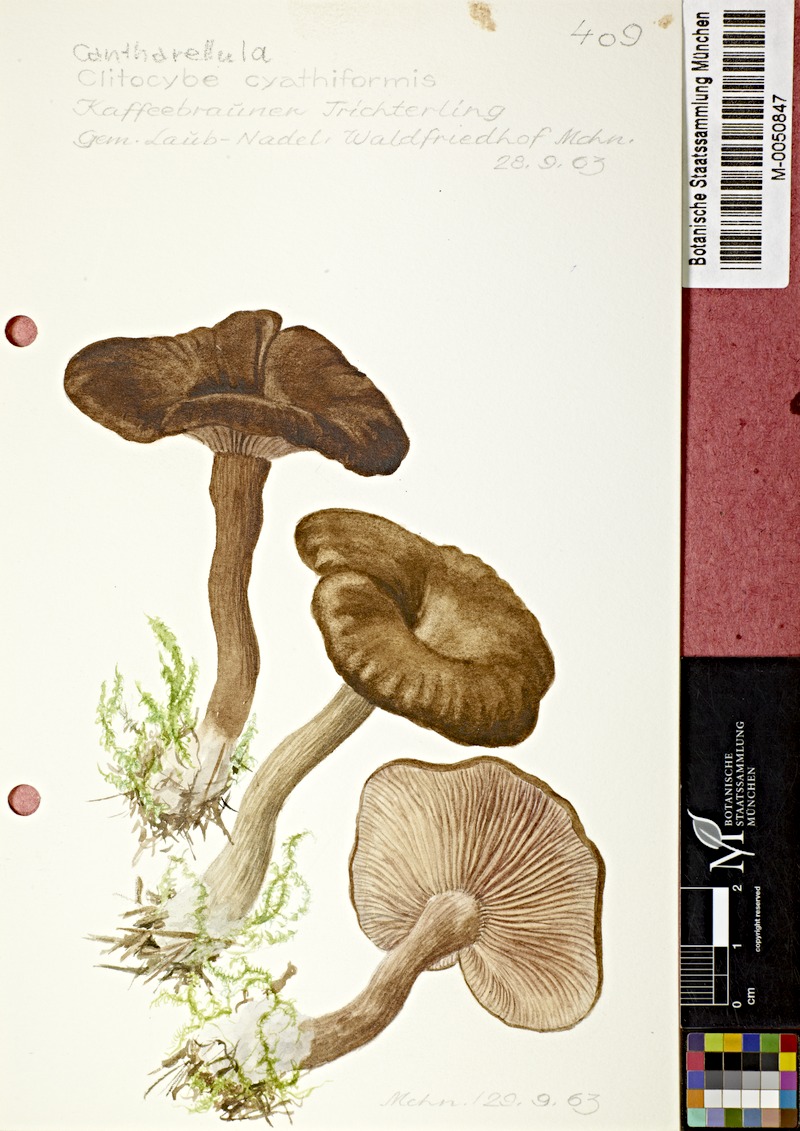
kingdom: Fungi
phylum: Basidiomycota
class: Agaricomycetes
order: Agaricales
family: Pseudoclitocybaceae
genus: Pseudoclitocybe
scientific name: Pseudoclitocybe cyathiformis
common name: Goblet
